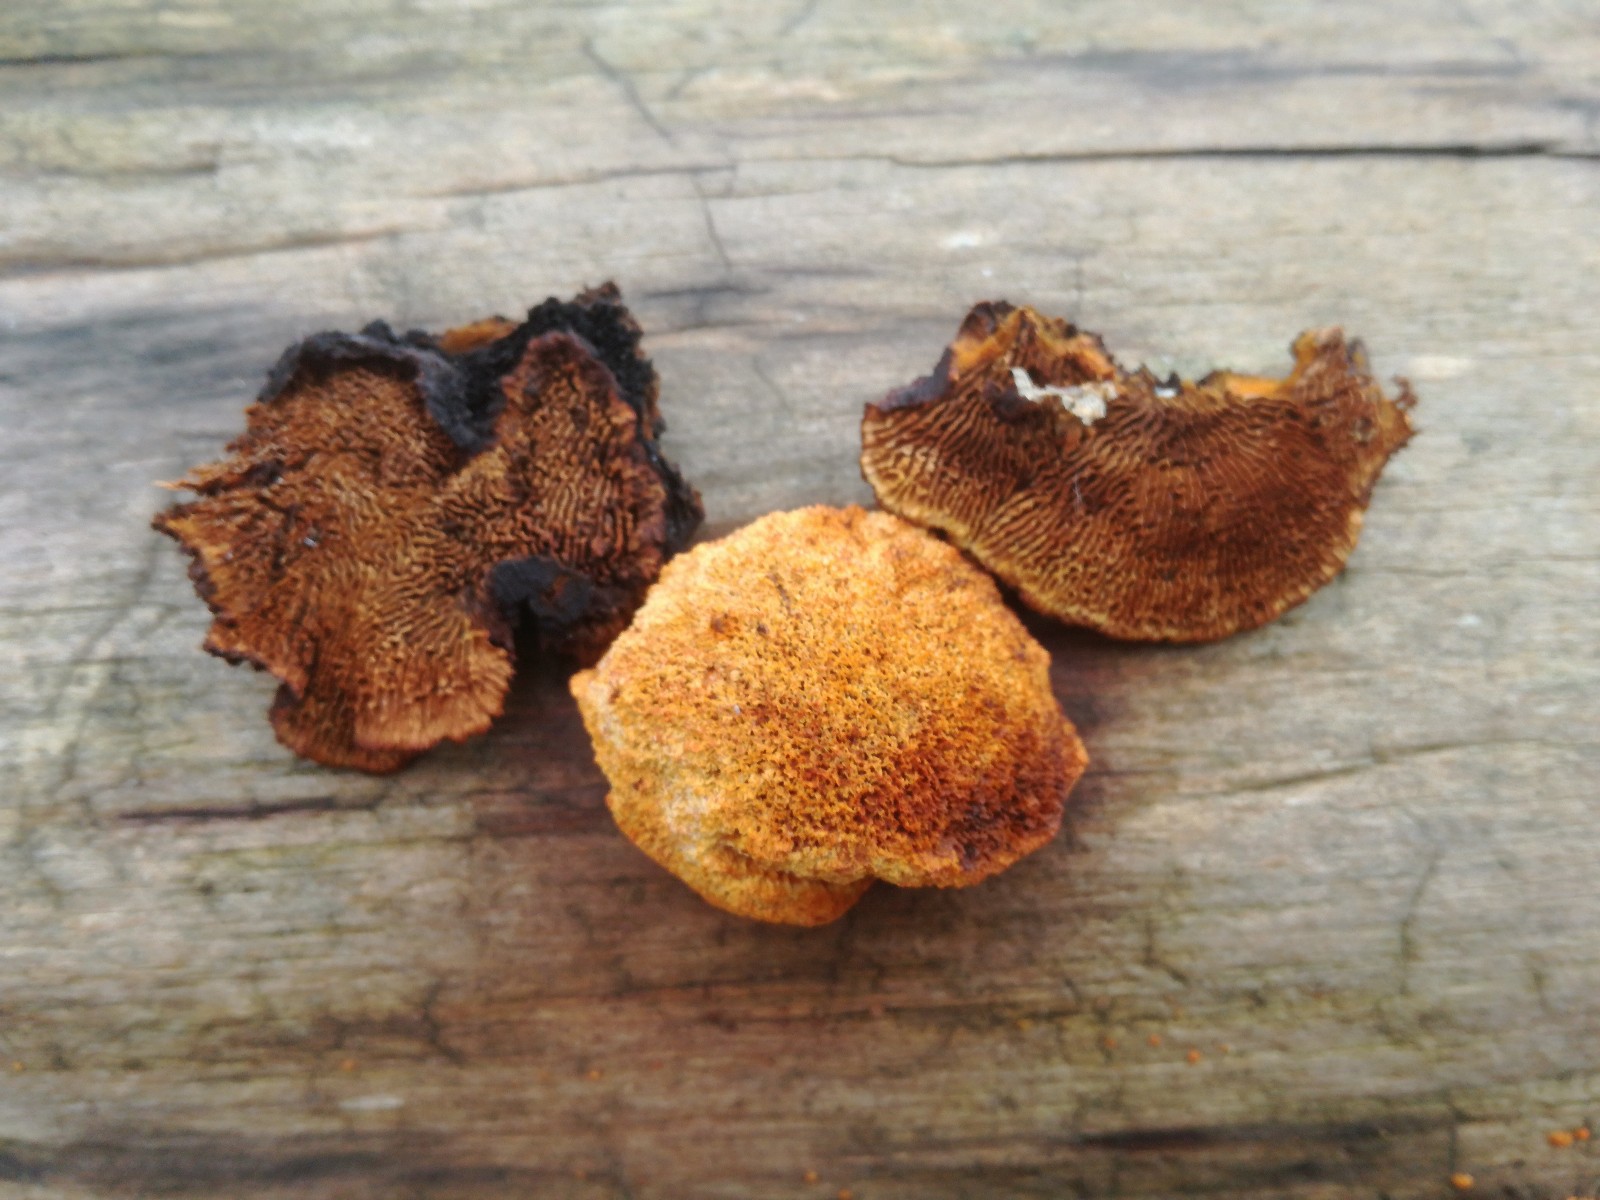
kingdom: Fungi
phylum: Basidiomycota
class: Agaricomycetes
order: Gloeophyllales
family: Gloeophyllaceae
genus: Gloeophyllum
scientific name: Gloeophyllum sepiarium
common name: fyrre-korkhat
